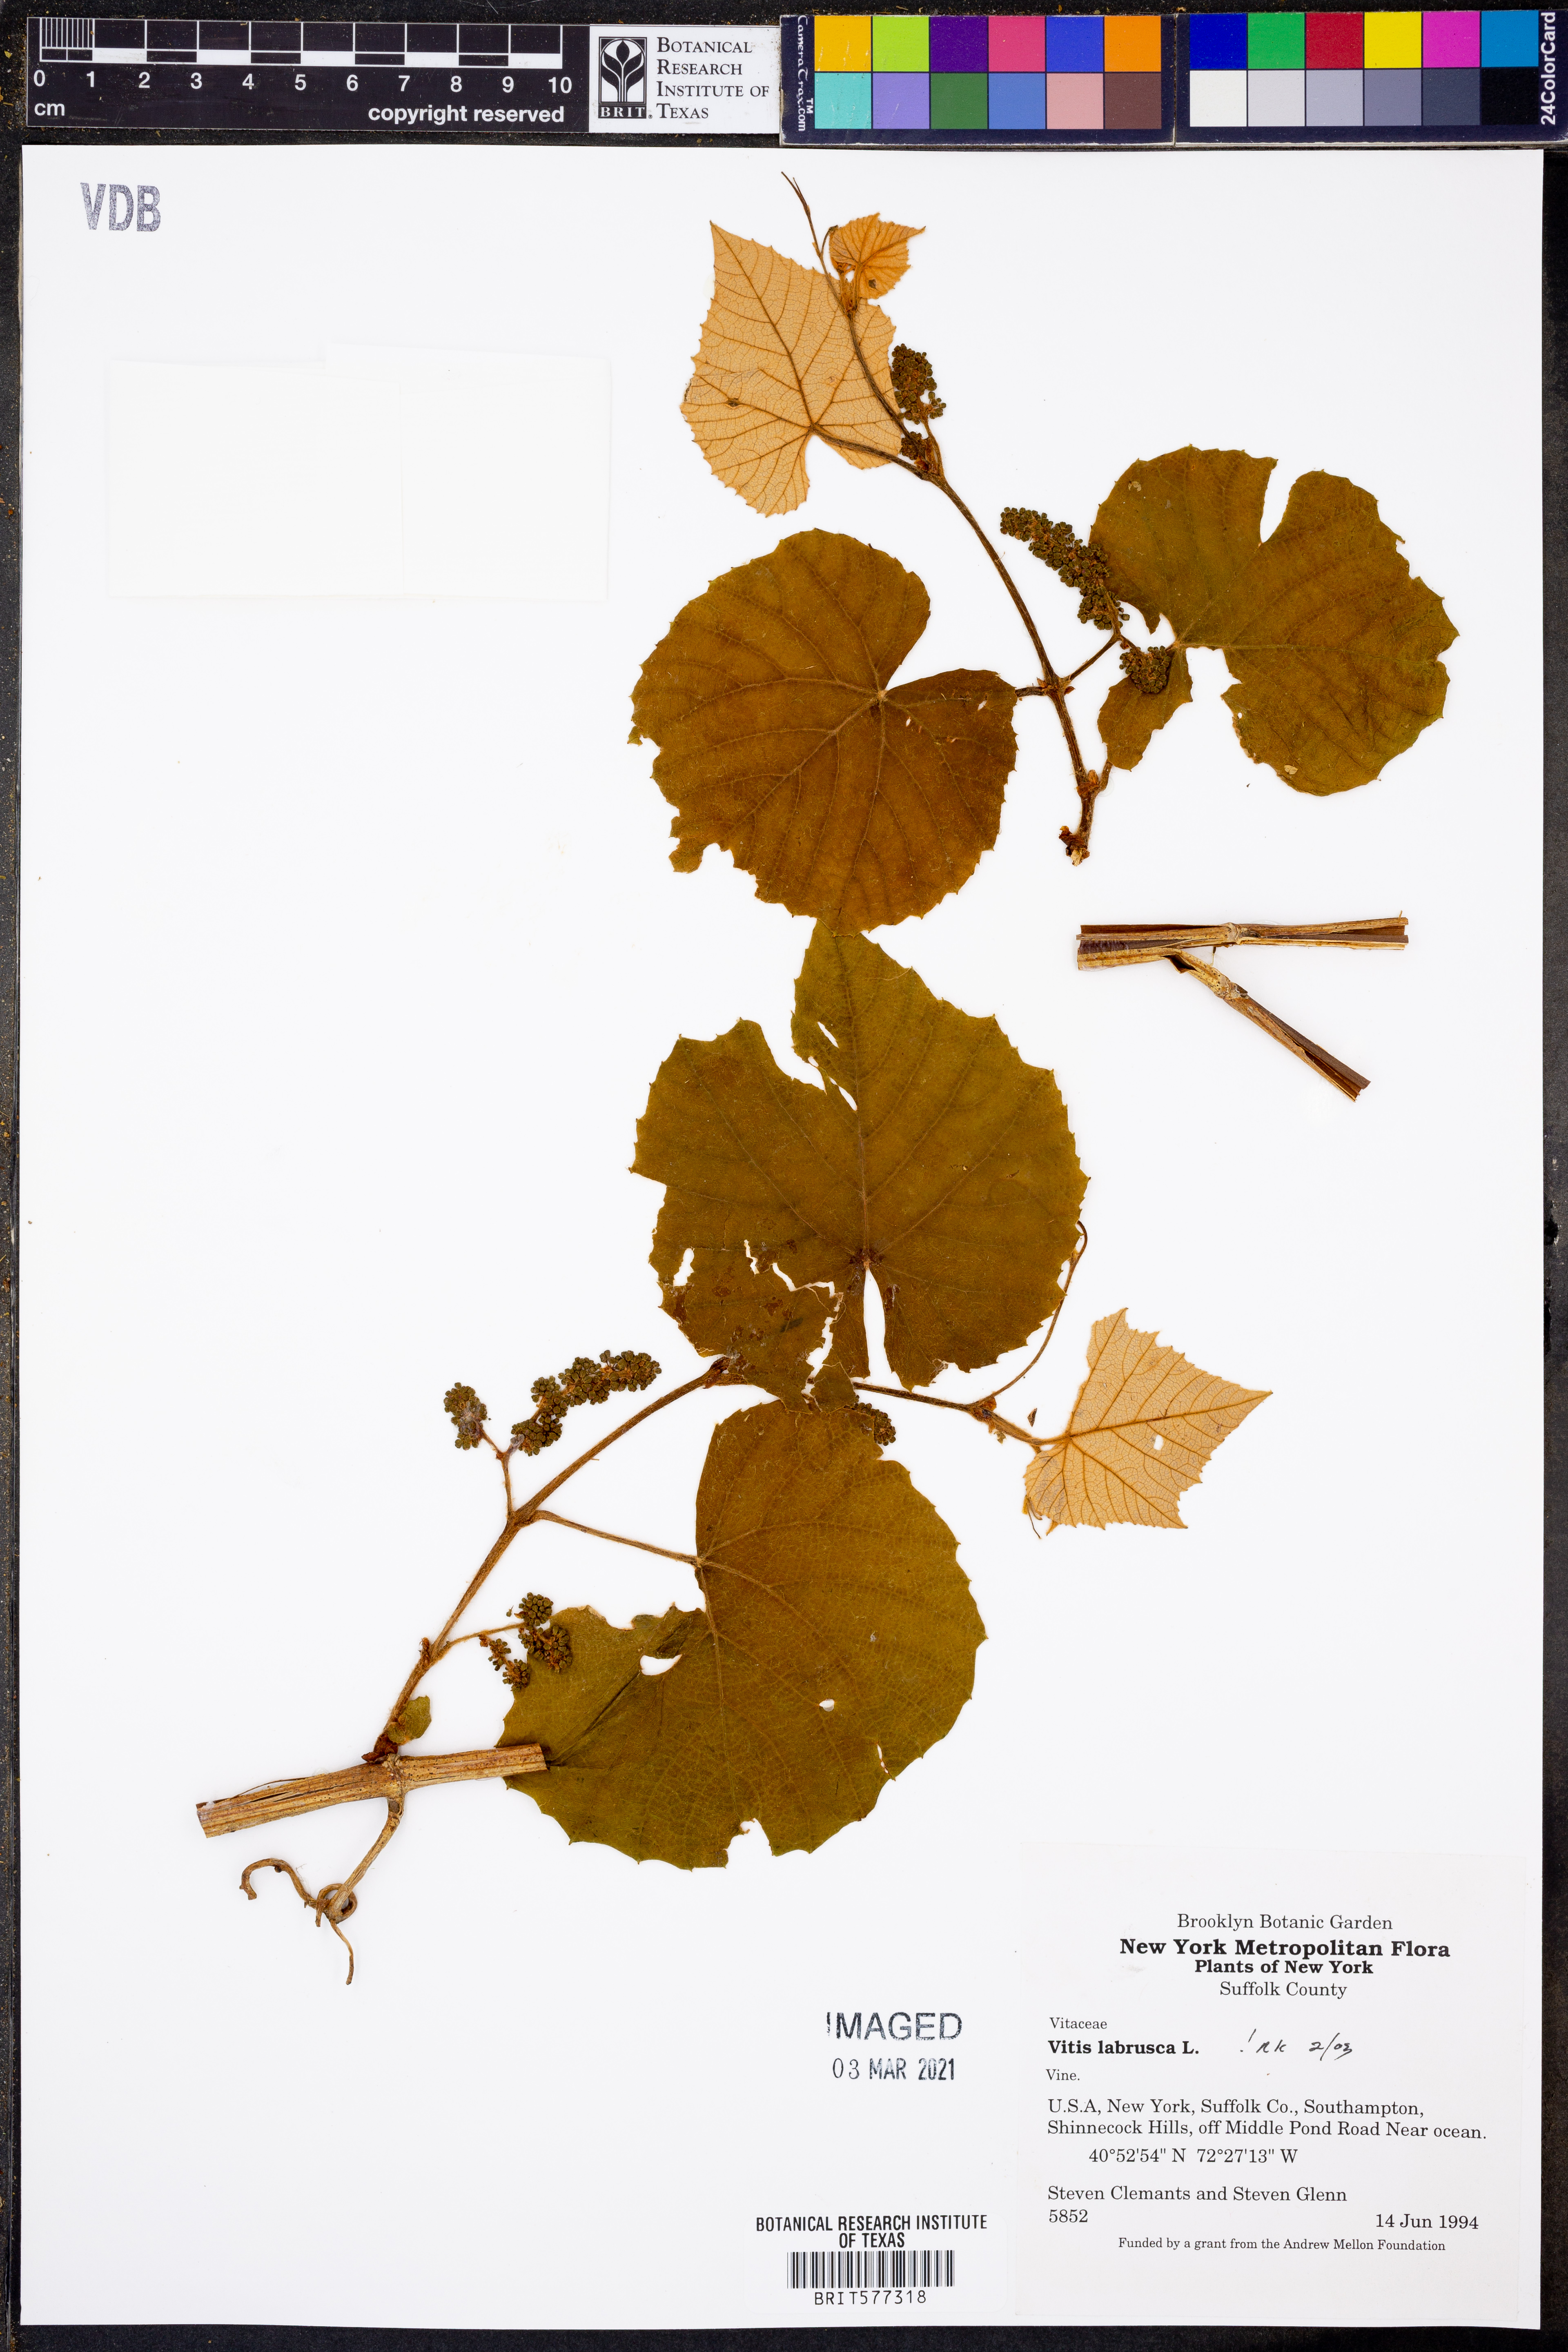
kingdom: Plantae
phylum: Tracheophyta
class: Magnoliopsida
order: Vitales
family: Vitaceae
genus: Vitis
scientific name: Vitis labrusca
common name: Concord grape
